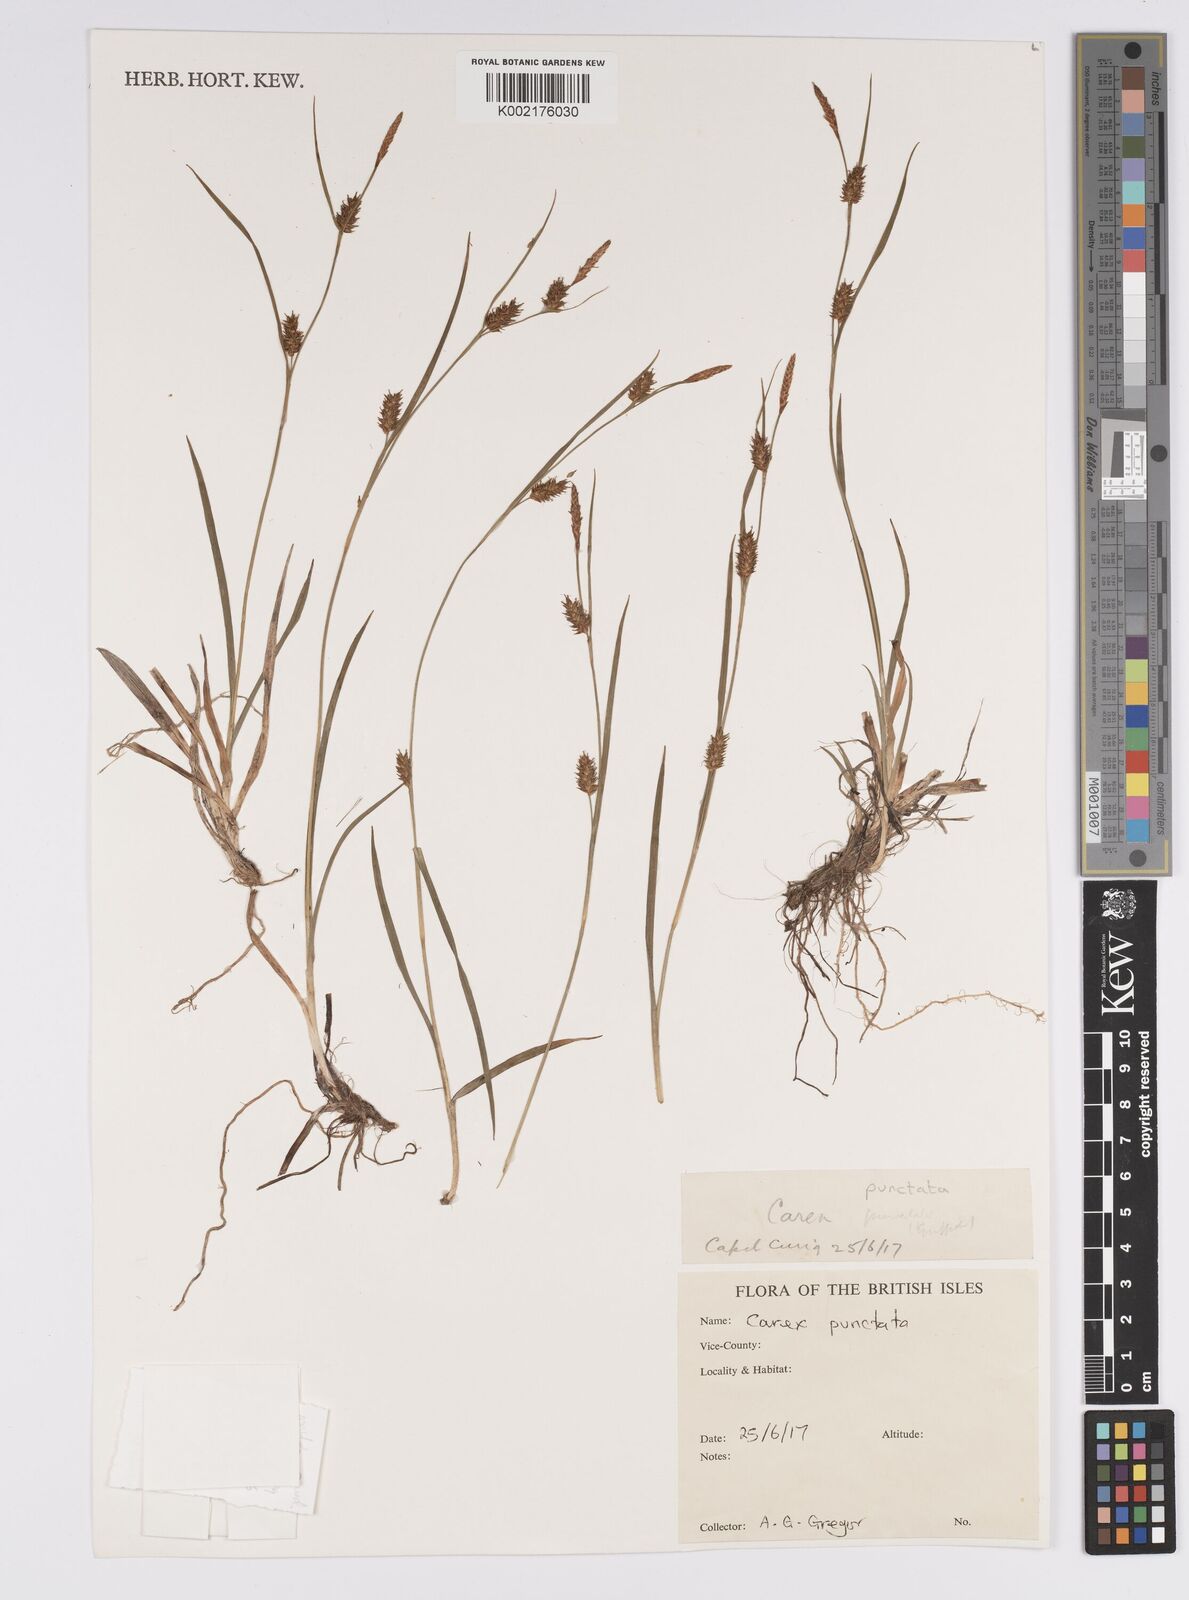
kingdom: Plantae
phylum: Tracheophyta
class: Liliopsida
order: Poales
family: Cyperaceae
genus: Carex
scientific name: Carex punctata
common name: Dotted sedge
